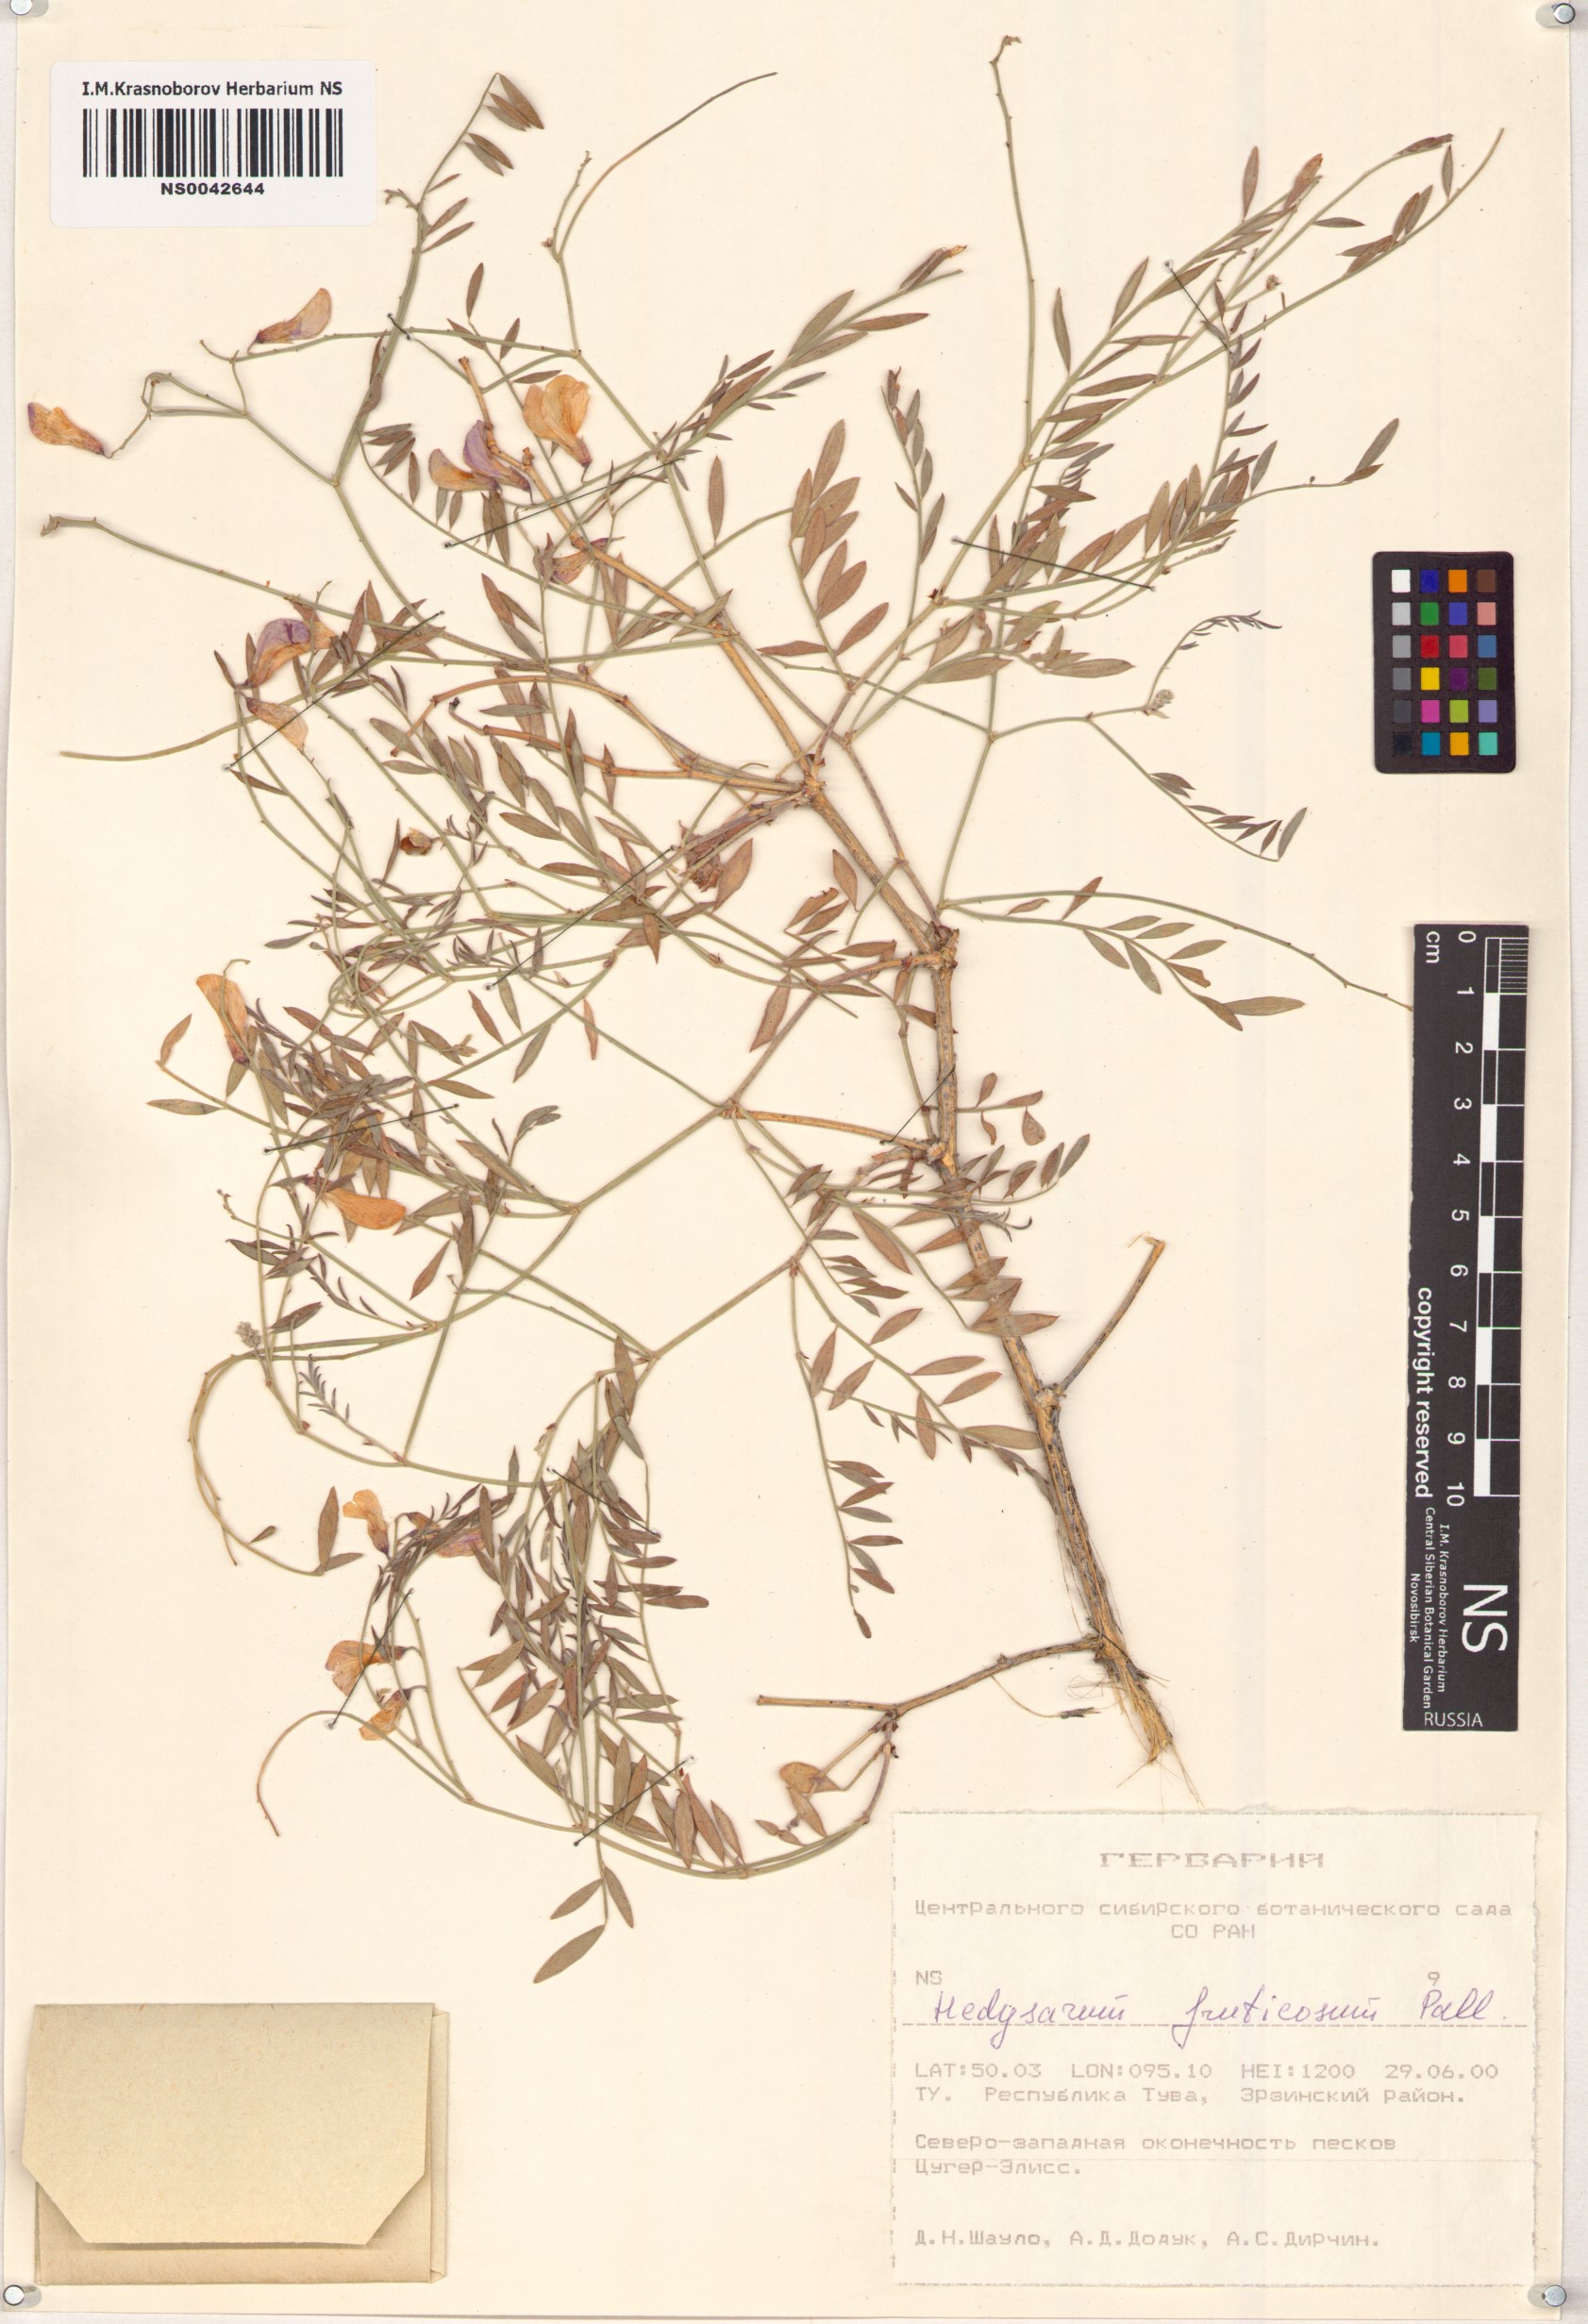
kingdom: Plantae
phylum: Tracheophyta
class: Magnoliopsida
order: Fabales
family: Fabaceae
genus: Corethrodendron
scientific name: Corethrodendron fruticosum
